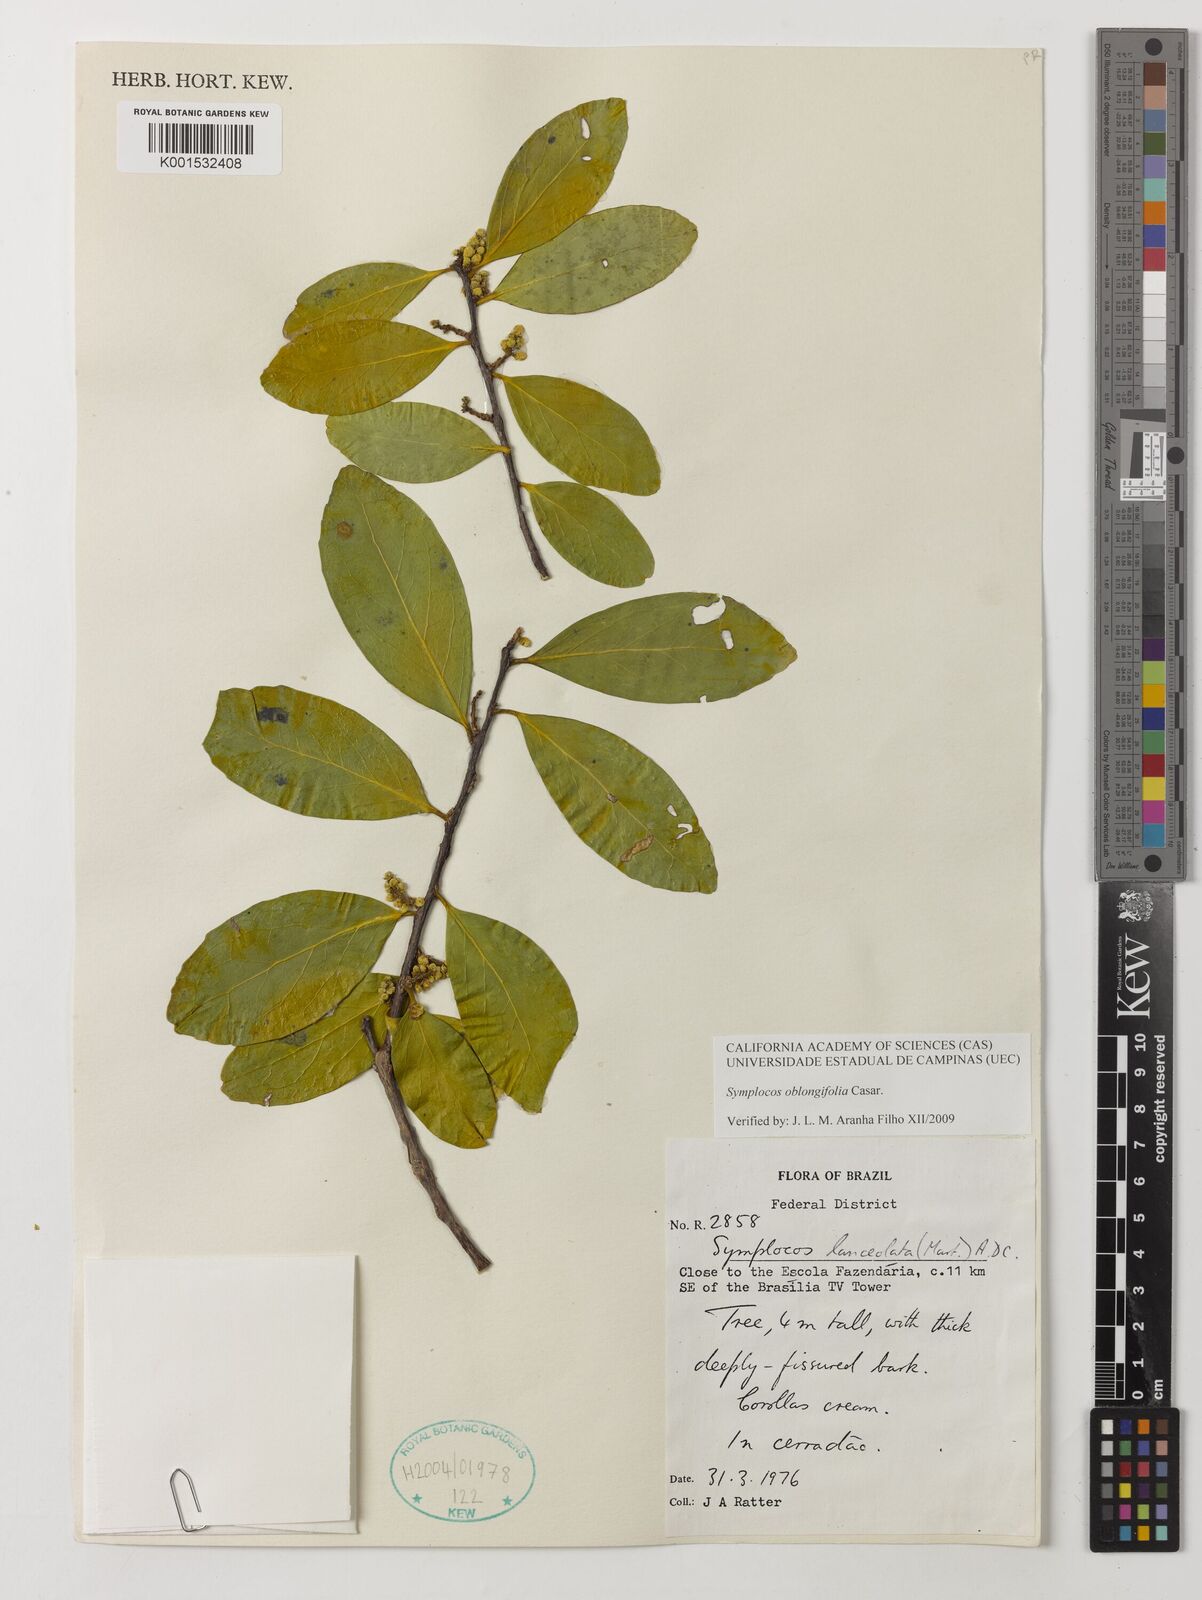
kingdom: Plantae
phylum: Tracheophyta
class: Magnoliopsida
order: Ericales
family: Symplocaceae
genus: Symplocos
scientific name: Symplocos oblongifolia
